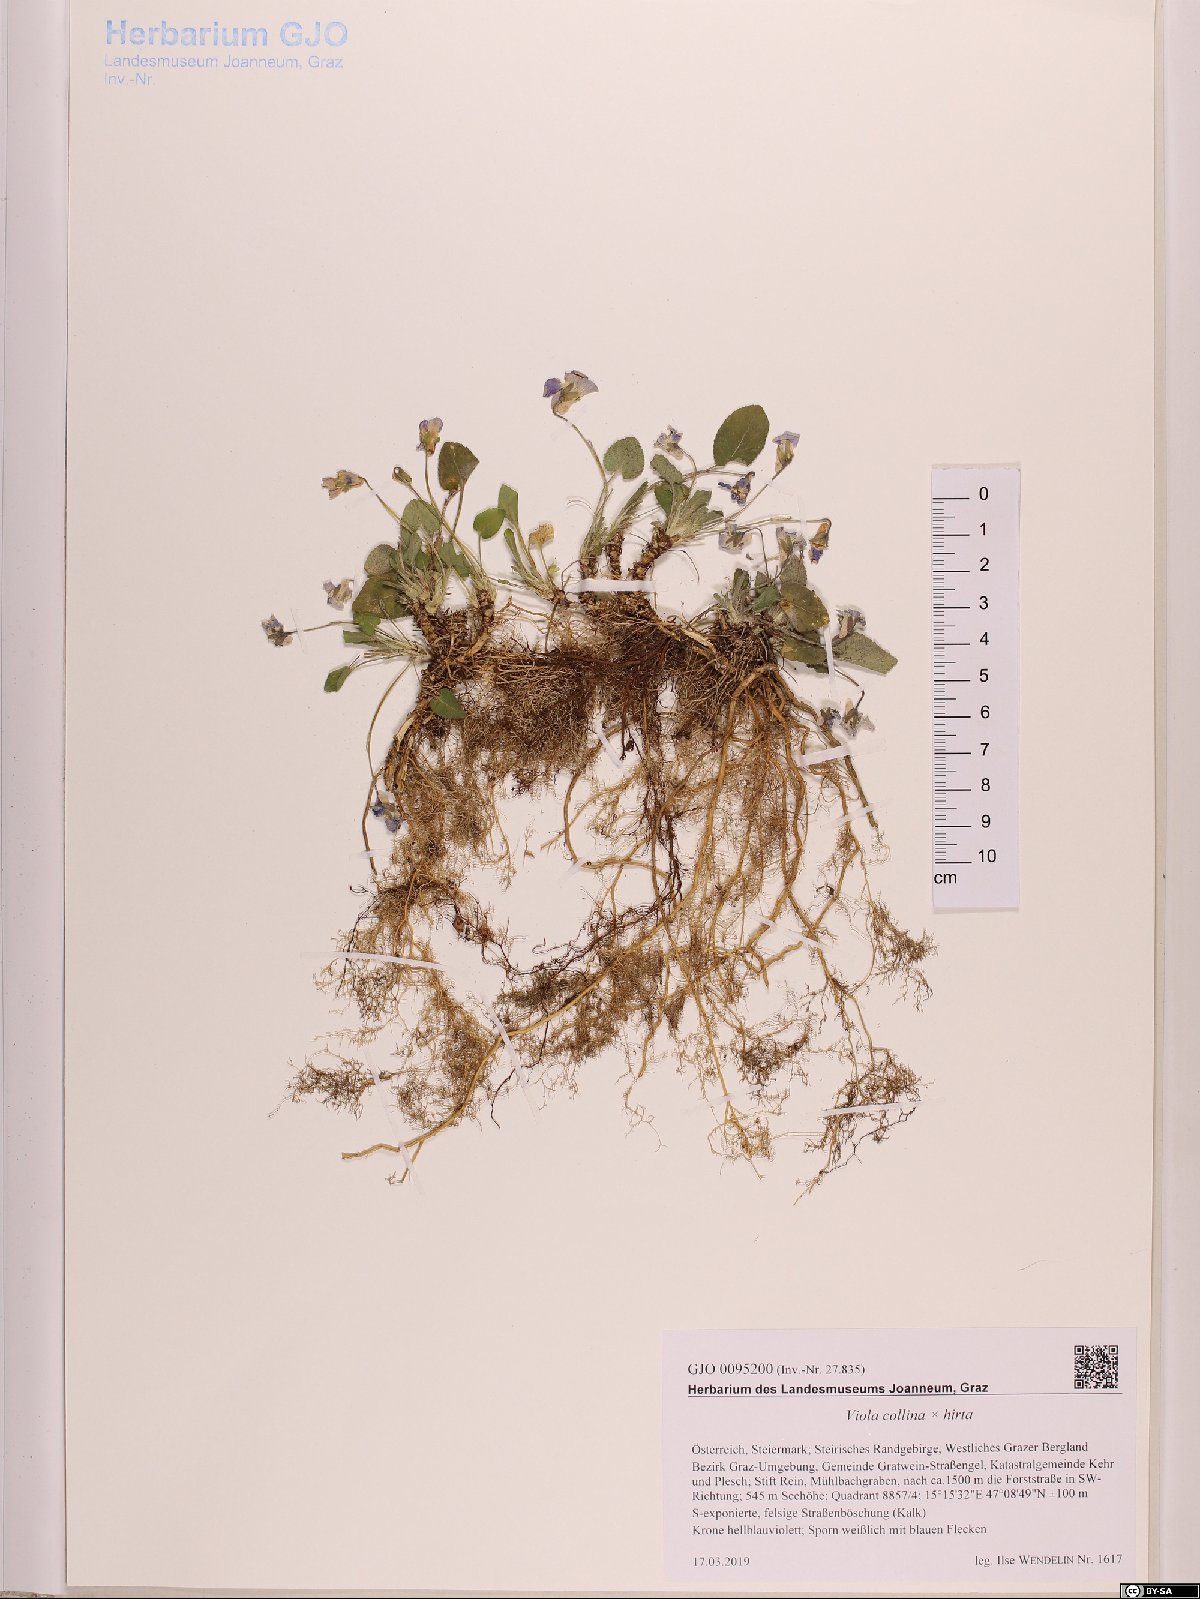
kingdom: Plantae
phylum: Tracheophyta
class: Magnoliopsida
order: Malpighiales
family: Violaceae
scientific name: Violaceae
